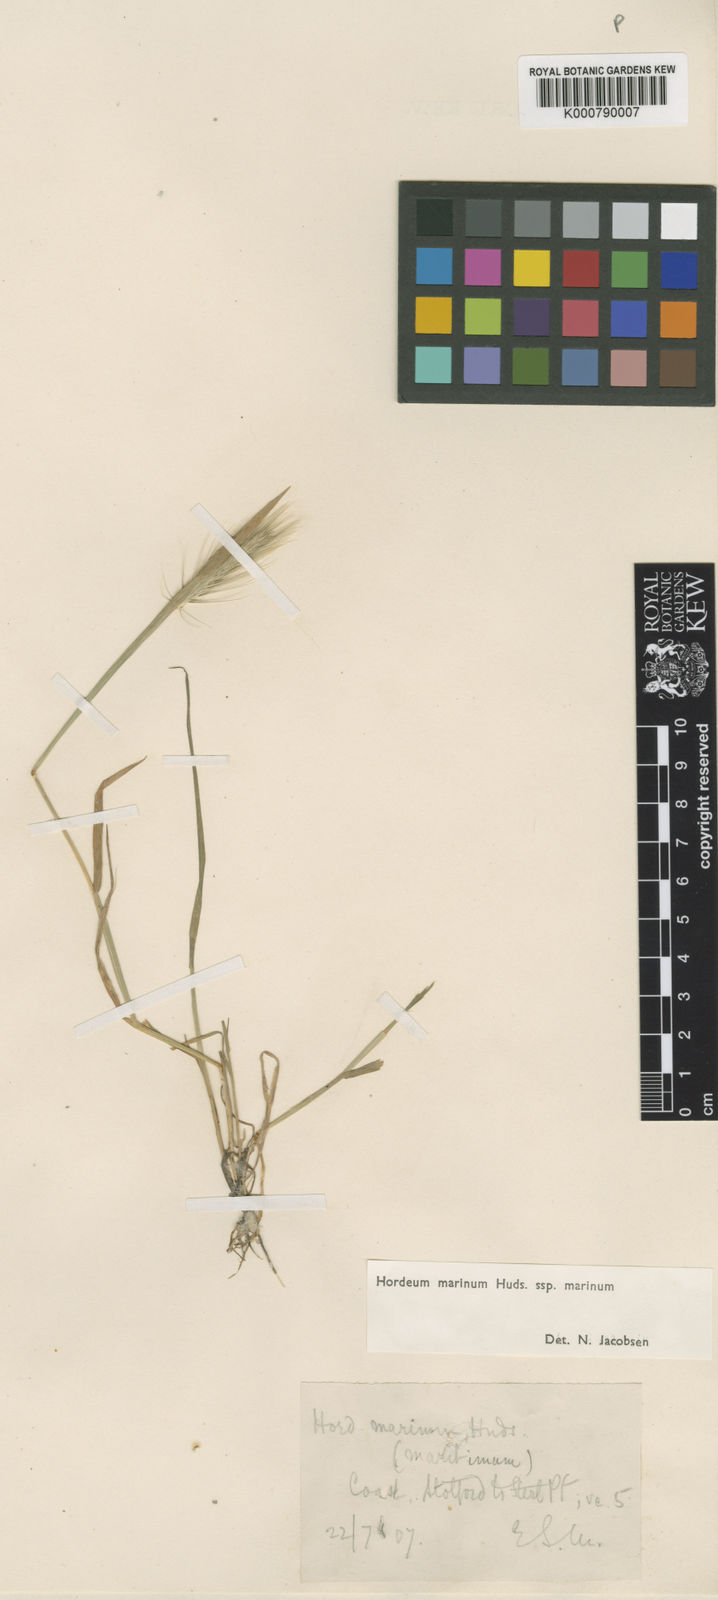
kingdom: Plantae
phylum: Tracheophyta
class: Liliopsida
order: Poales
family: Poaceae
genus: Hordeum
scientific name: Hordeum marinum
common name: Sea barley
